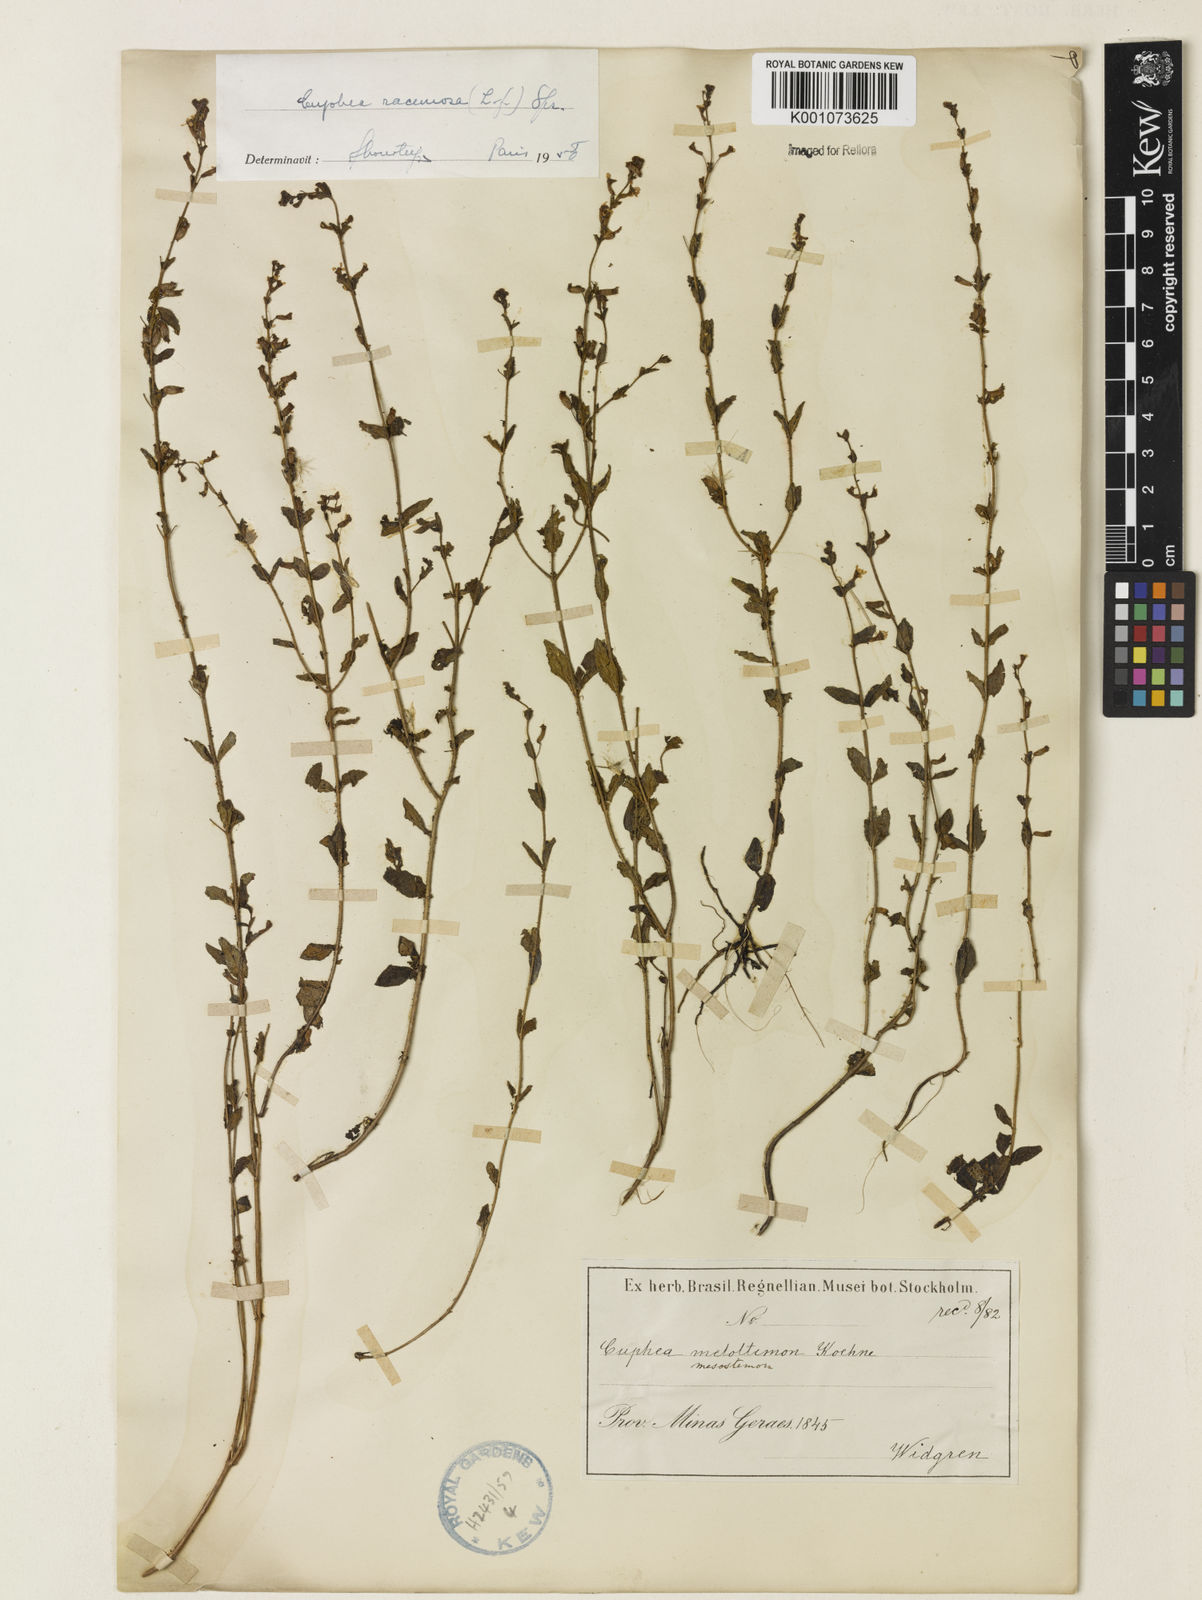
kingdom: Plantae
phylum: Tracheophyta
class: Magnoliopsida
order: Myrtales
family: Lythraceae
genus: Cuphea
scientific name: Cuphea racemosa
